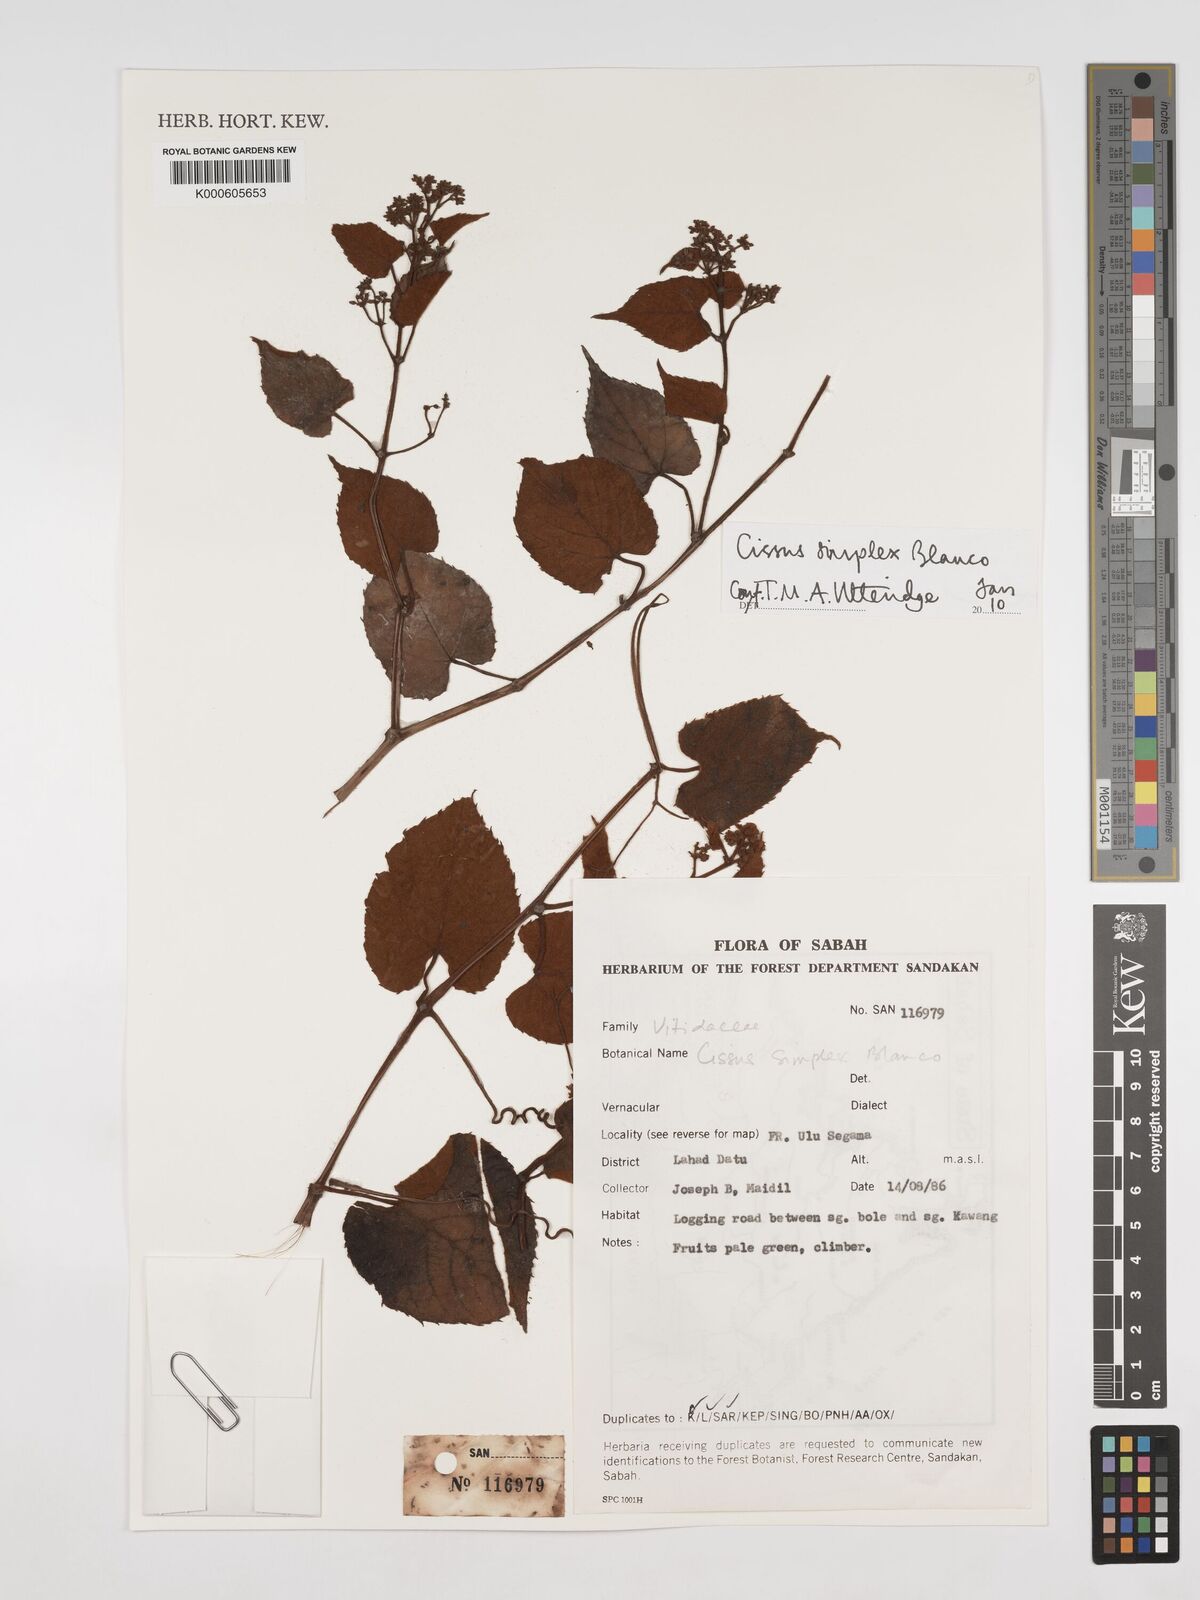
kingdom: Plantae
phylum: Tracheophyta
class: Magnoliopsida
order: Vitales
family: Vitaceae
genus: Cissus
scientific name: Cissus aristata
